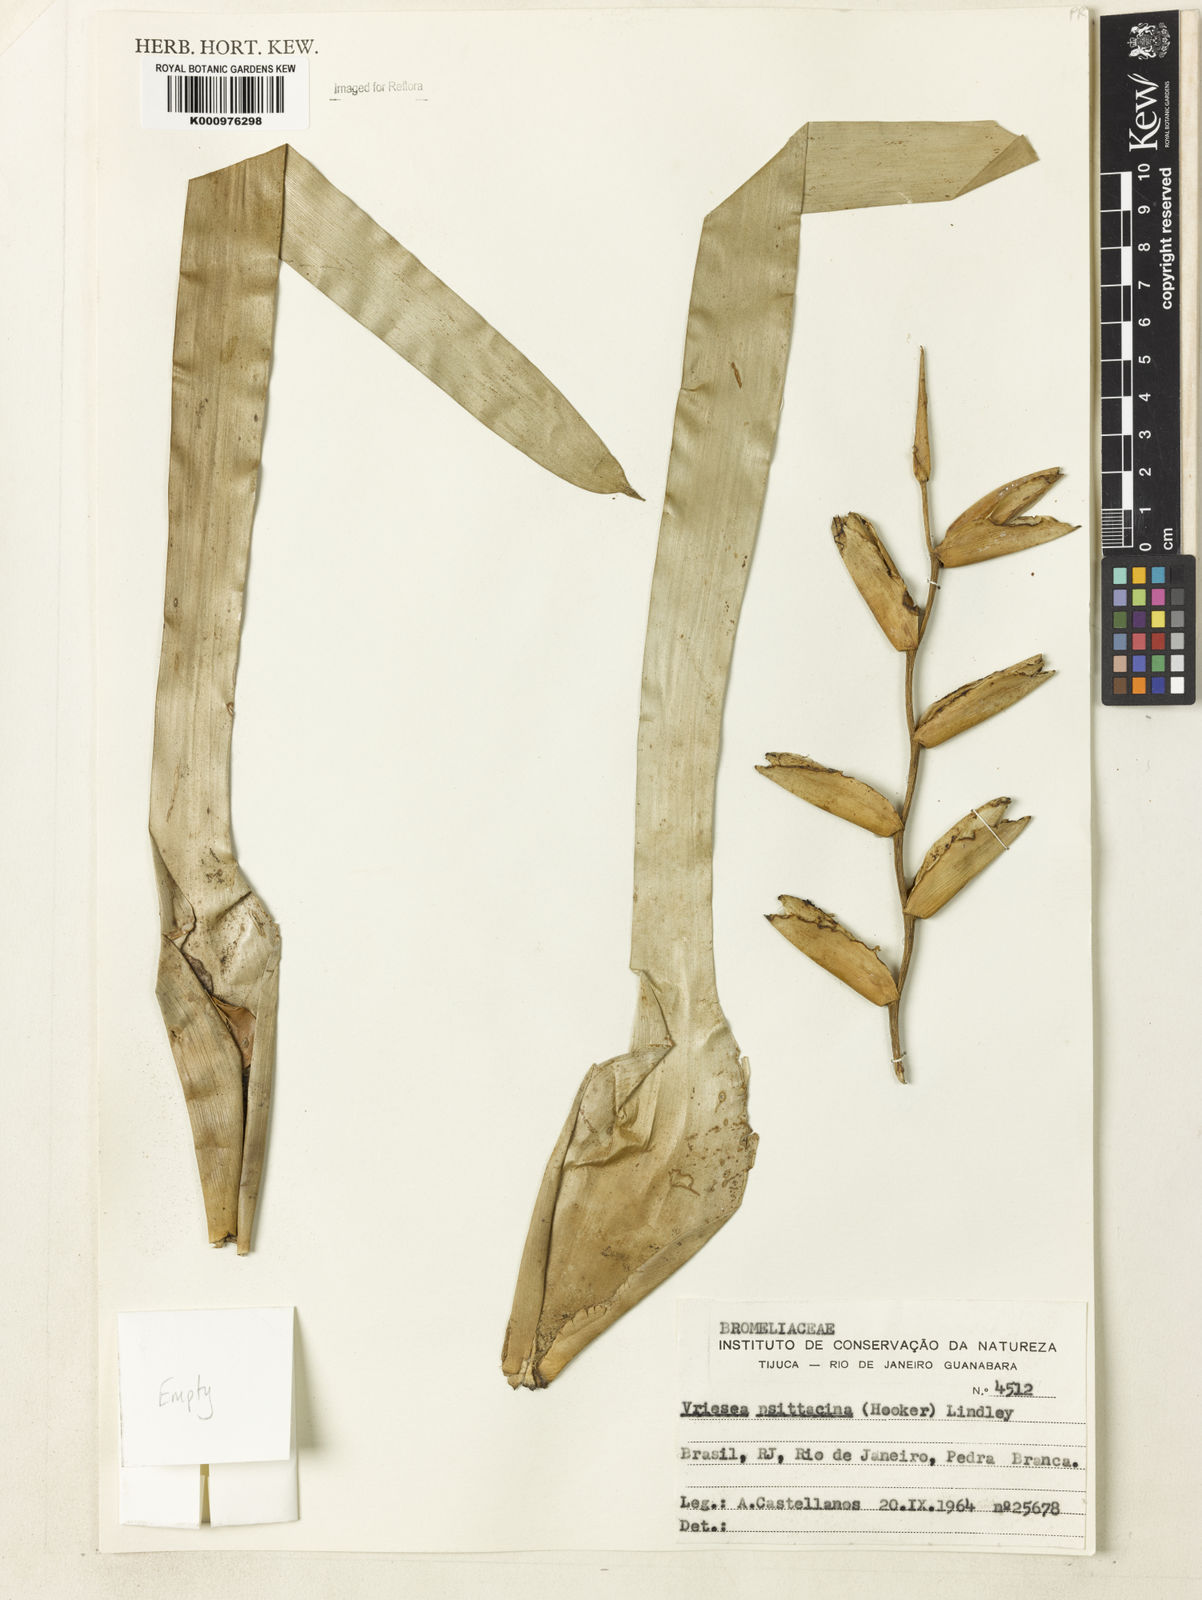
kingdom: Plantae
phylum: Tracheophyta
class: Liliopsida
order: Poales
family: Bromeliaceae
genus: Vriesea
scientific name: Vriesea psittacina
